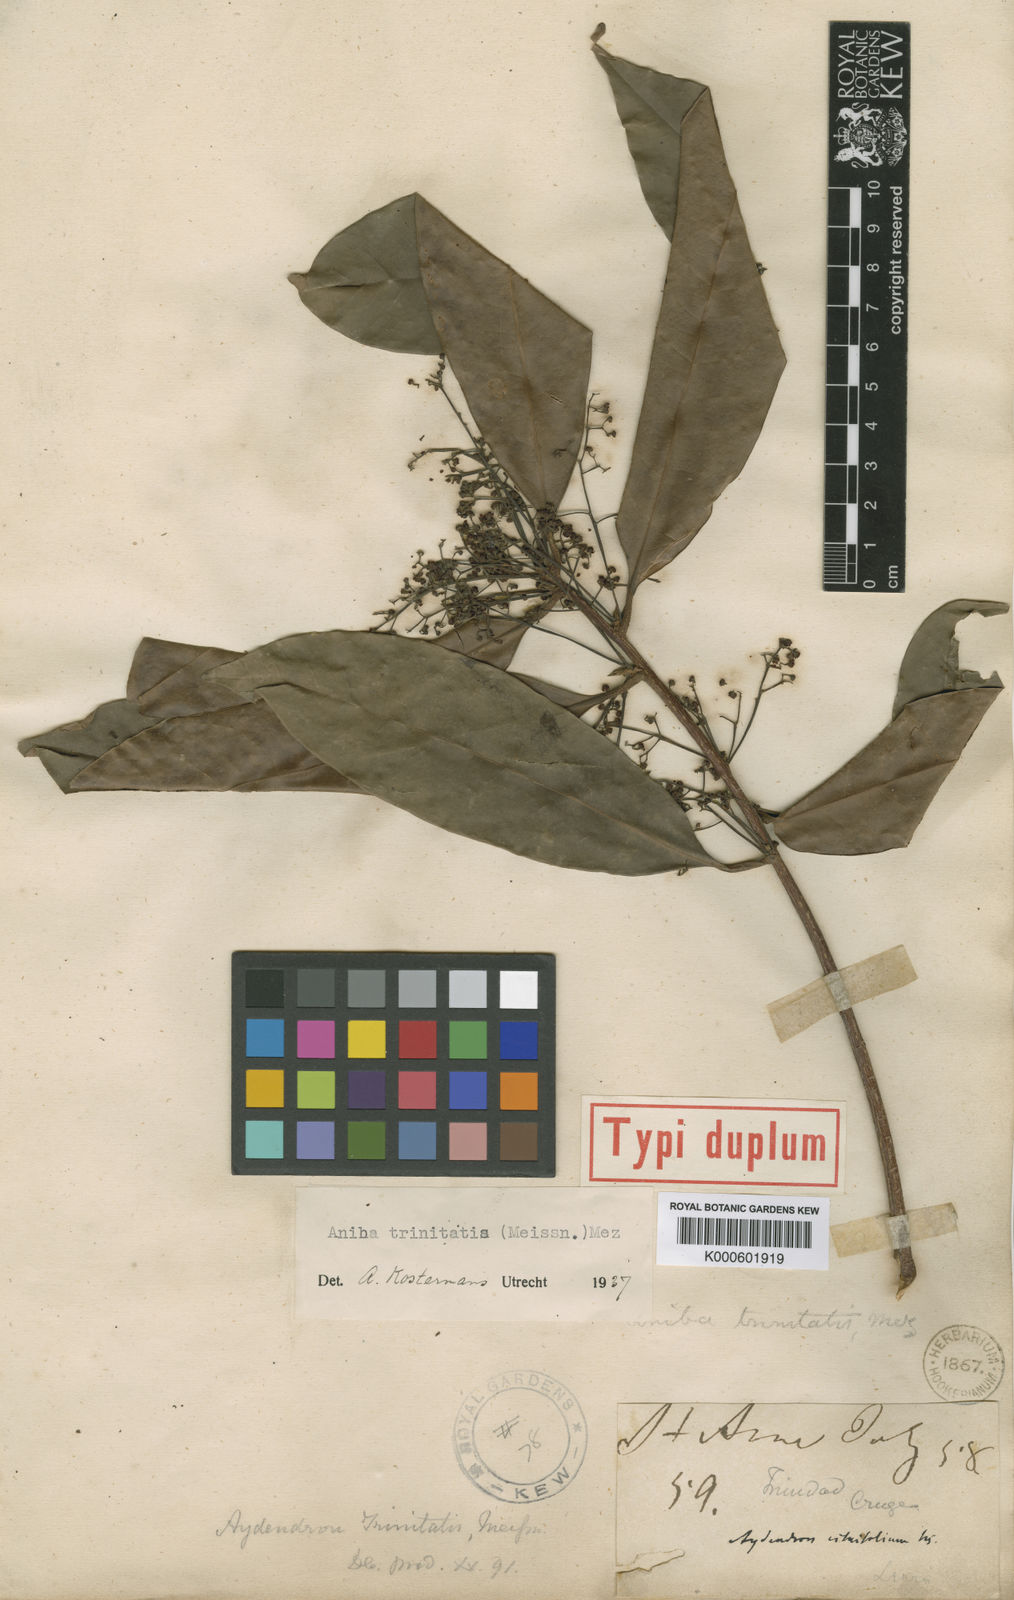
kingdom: Plantae
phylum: Tracheophyta
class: Magnoliopsida
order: Laurales
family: Lauraceae
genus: Aniba
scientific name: Aniba citrifolia
